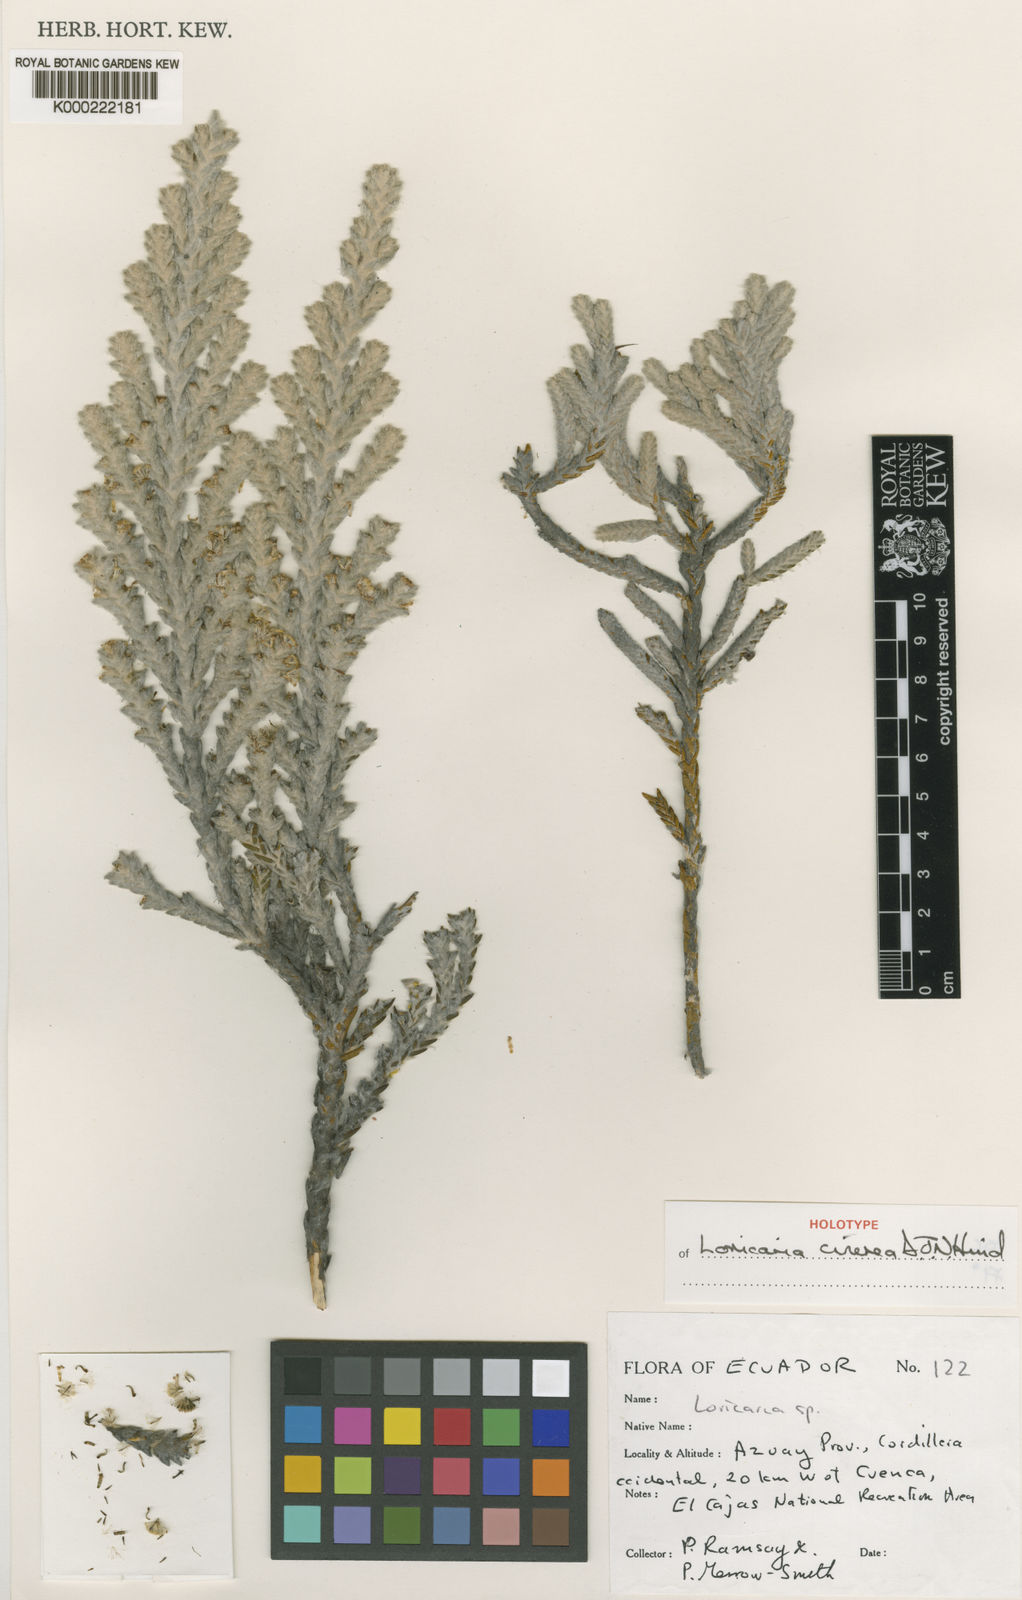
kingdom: Plantae
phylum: Tracheophyta
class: Magnoliopsida
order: Asterales
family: Asteraceae
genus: Andicolea
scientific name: Andicolea cinerea
